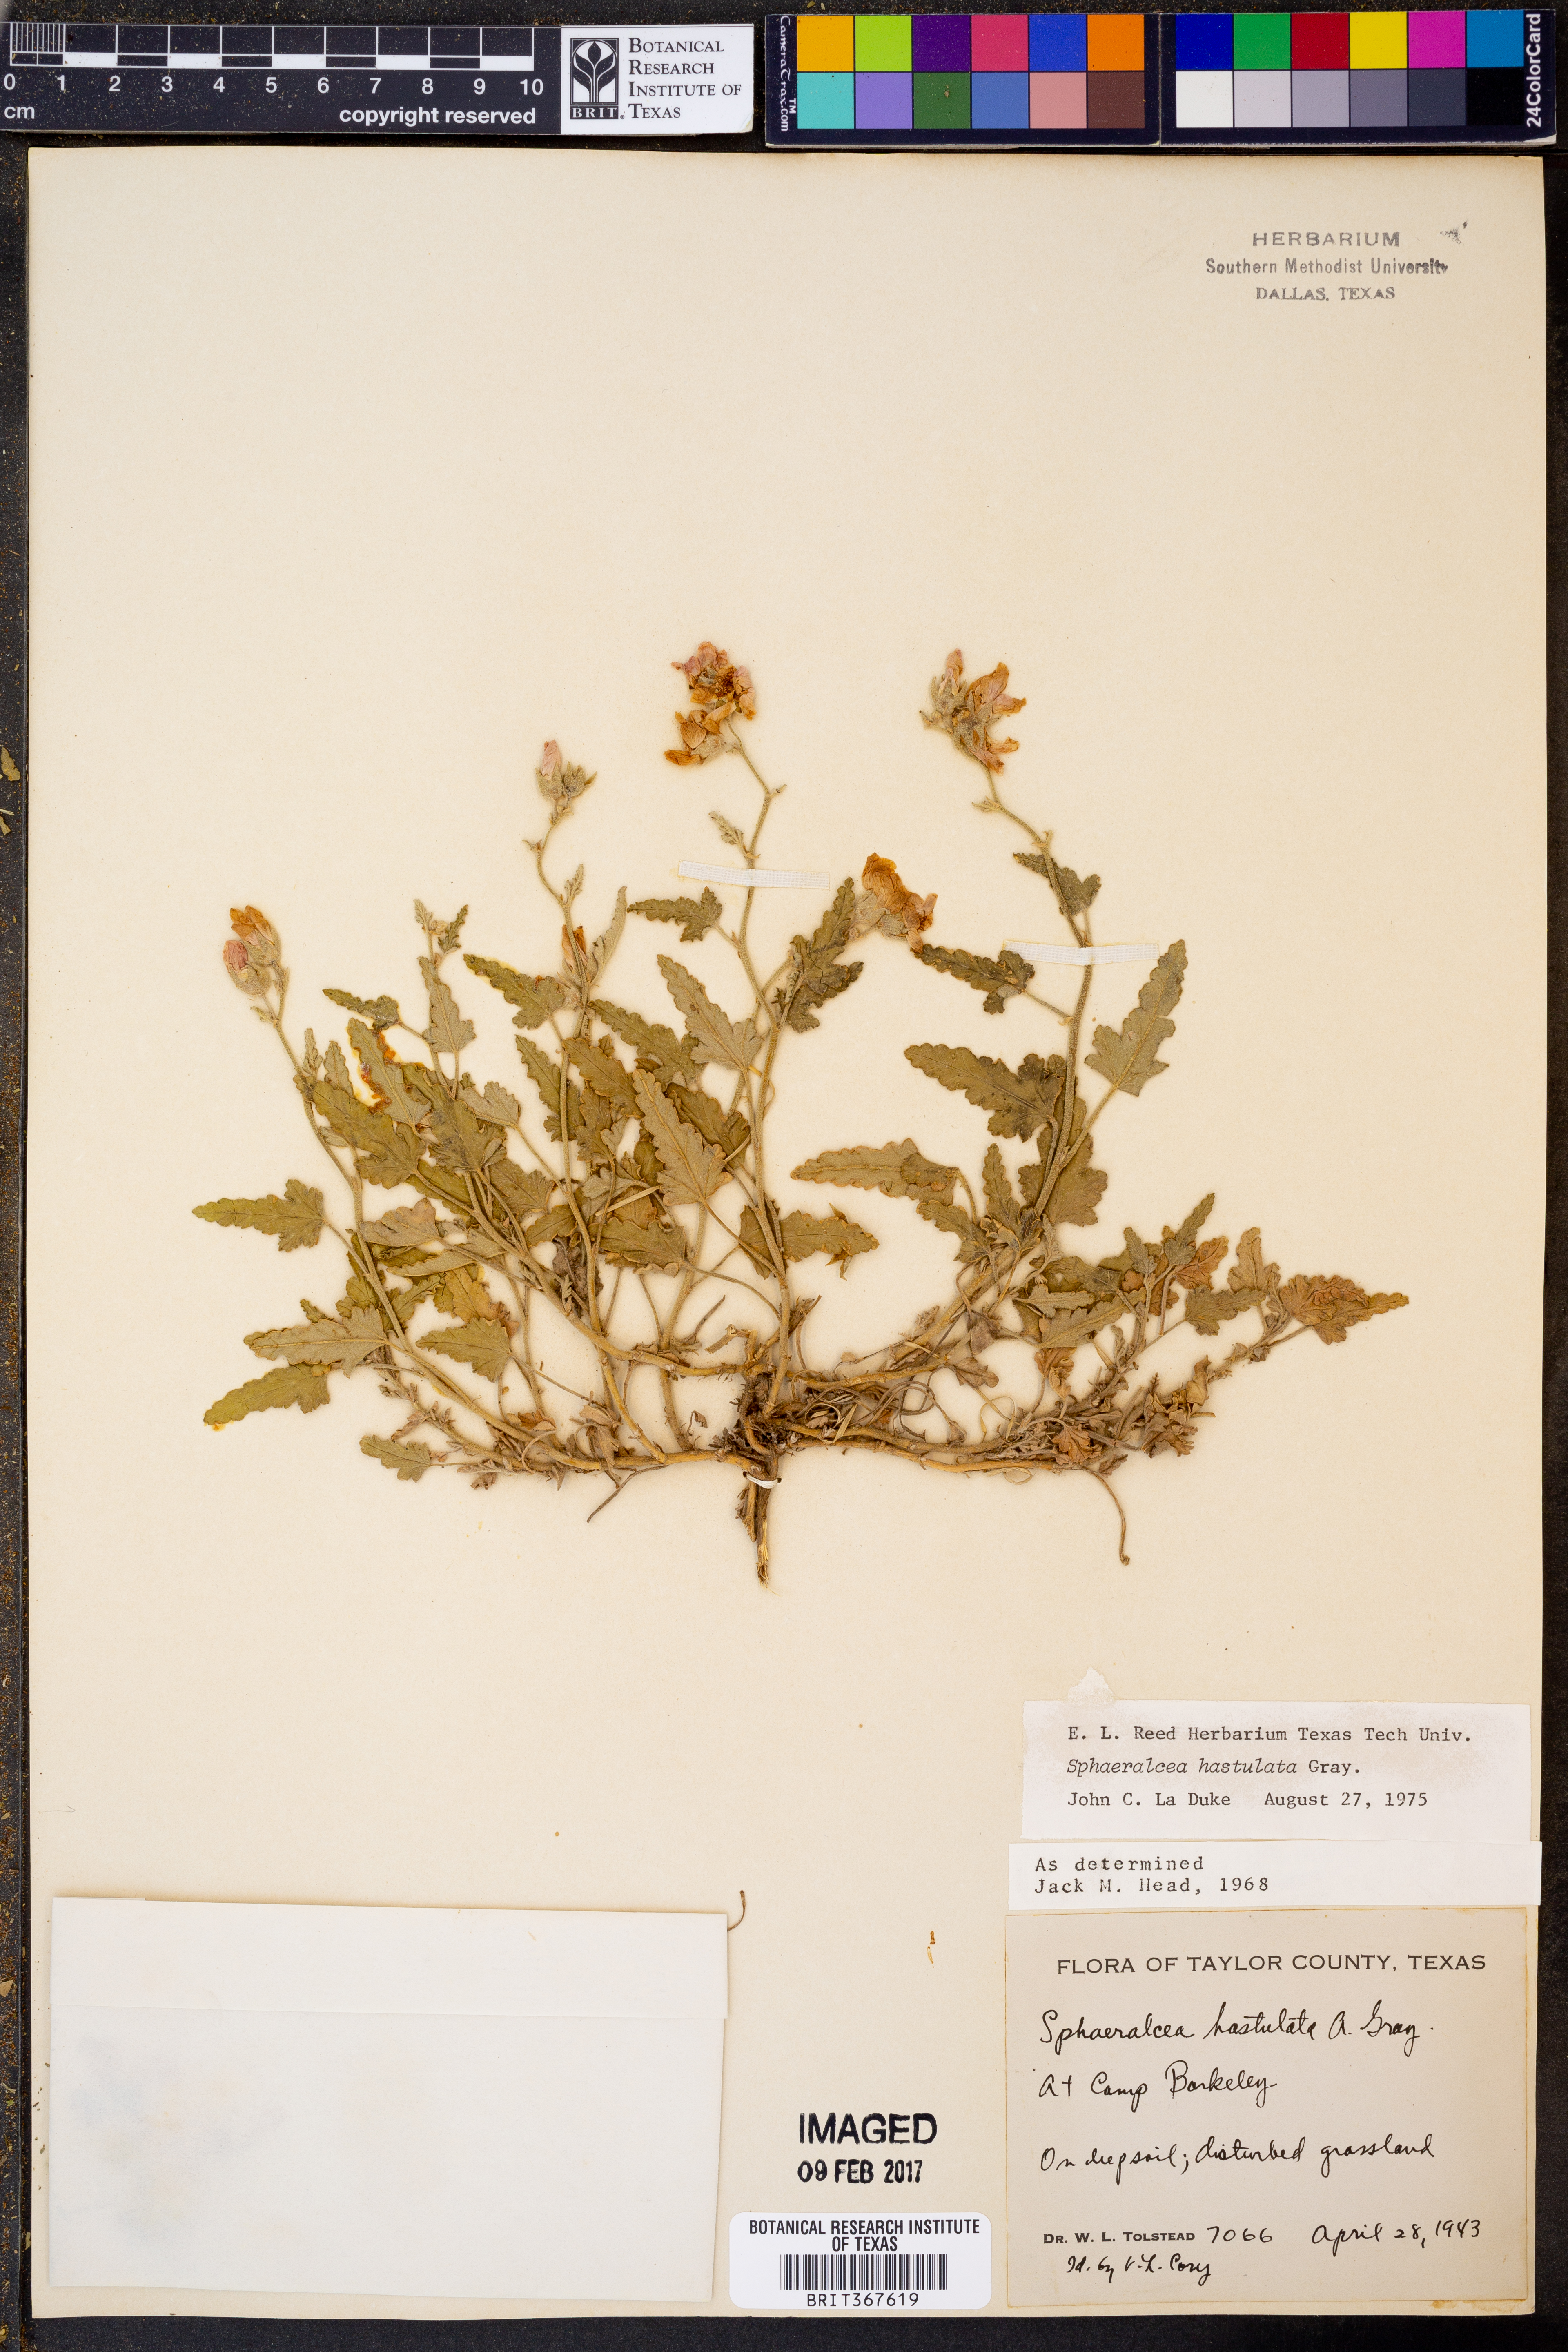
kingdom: Plantae
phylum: Tracheophyta
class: Magnoliopsida
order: Malvales
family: Malvaceae
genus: Sphaeralcea
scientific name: Sphaeralcea hastulata
